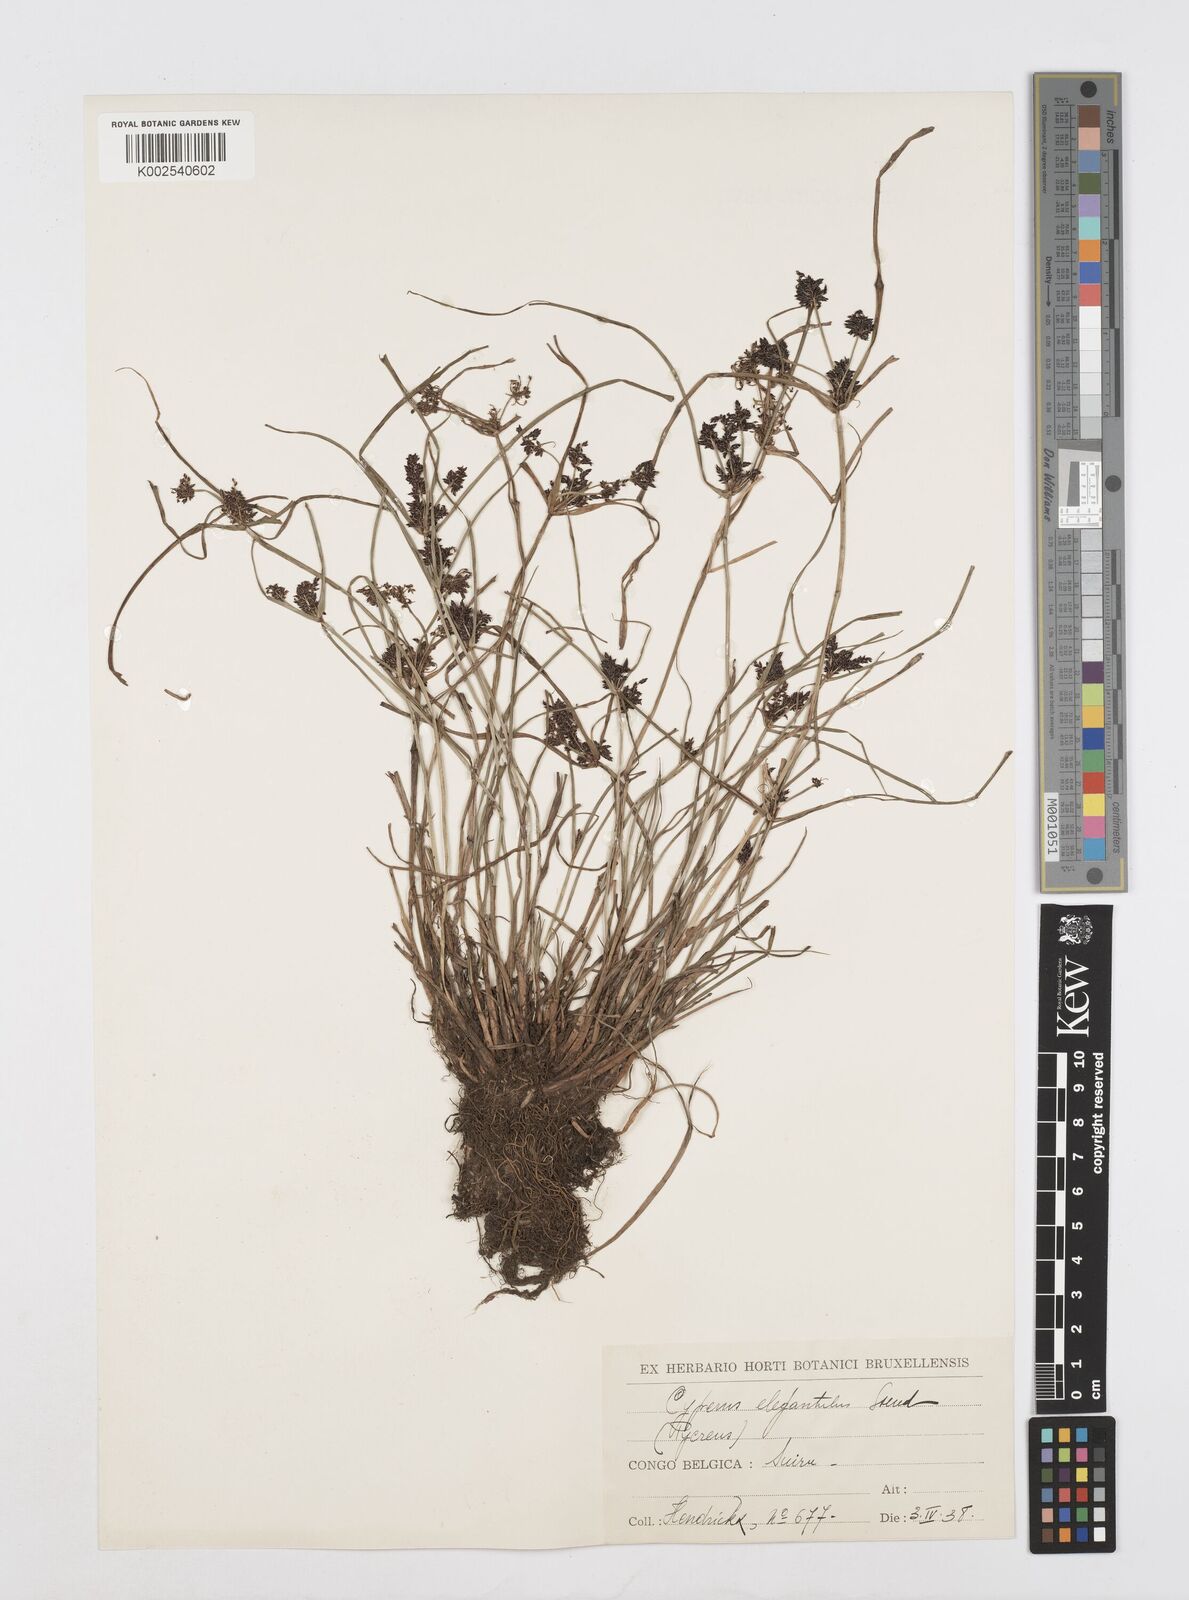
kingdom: Plantae
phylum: Tracheophyta
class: Liliopsida
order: Poales
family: Cyperaceae
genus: Cyperus
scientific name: Cyperus elegantulus
